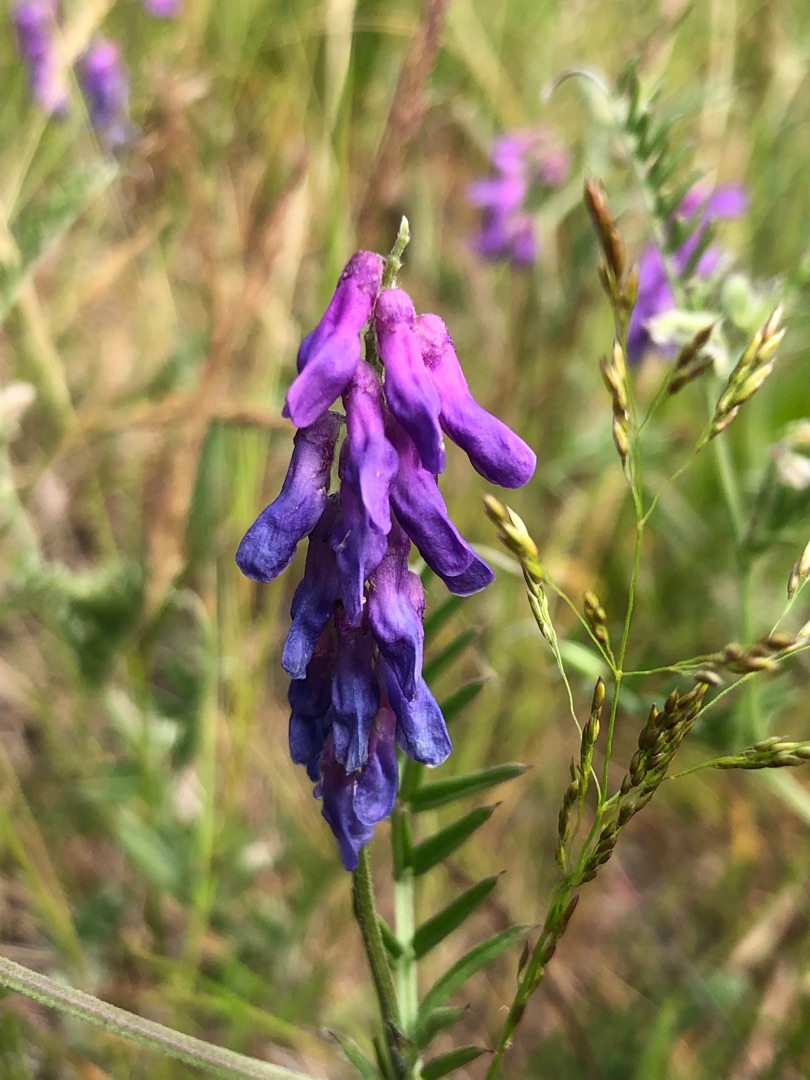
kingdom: Plantae
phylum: Tracheophyta
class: Magnoliopsida
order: Fabales
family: Fabaceae
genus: Vicia
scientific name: Vicia cracca
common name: Muse-vikke
